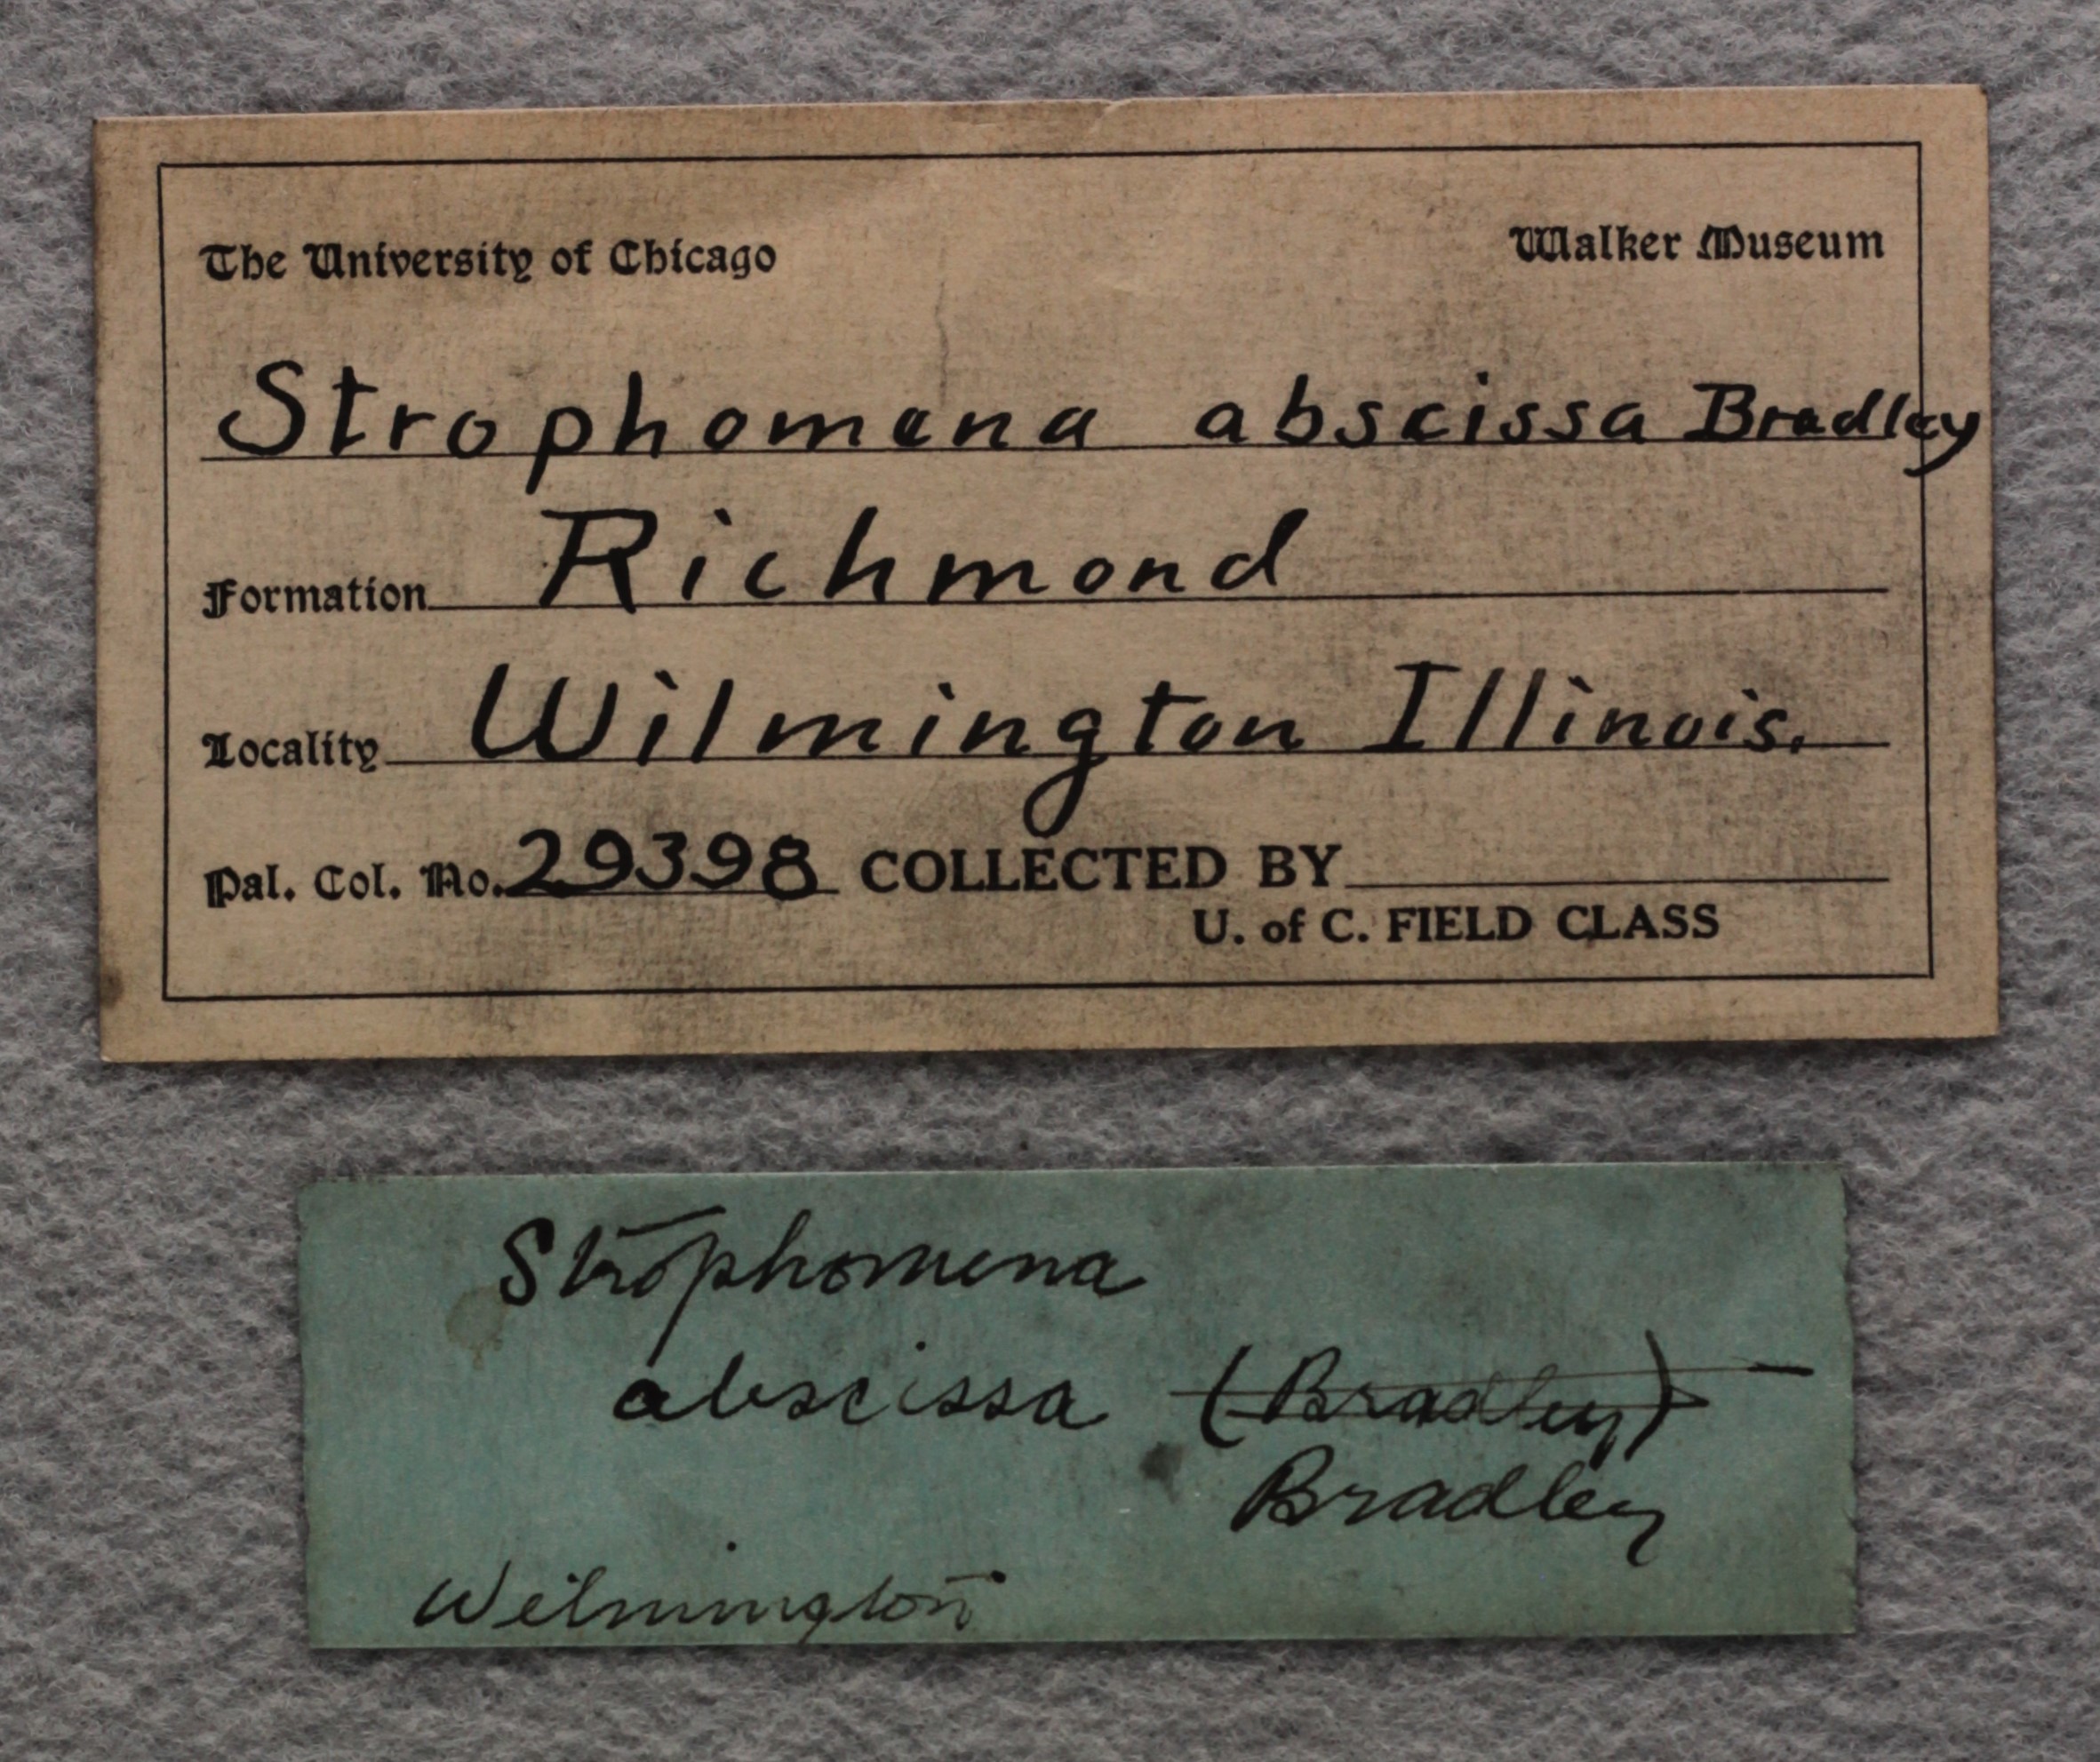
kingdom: Animalia
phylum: Brachiopoda
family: Strophomenidae
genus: Strophomena
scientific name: Strophomena
